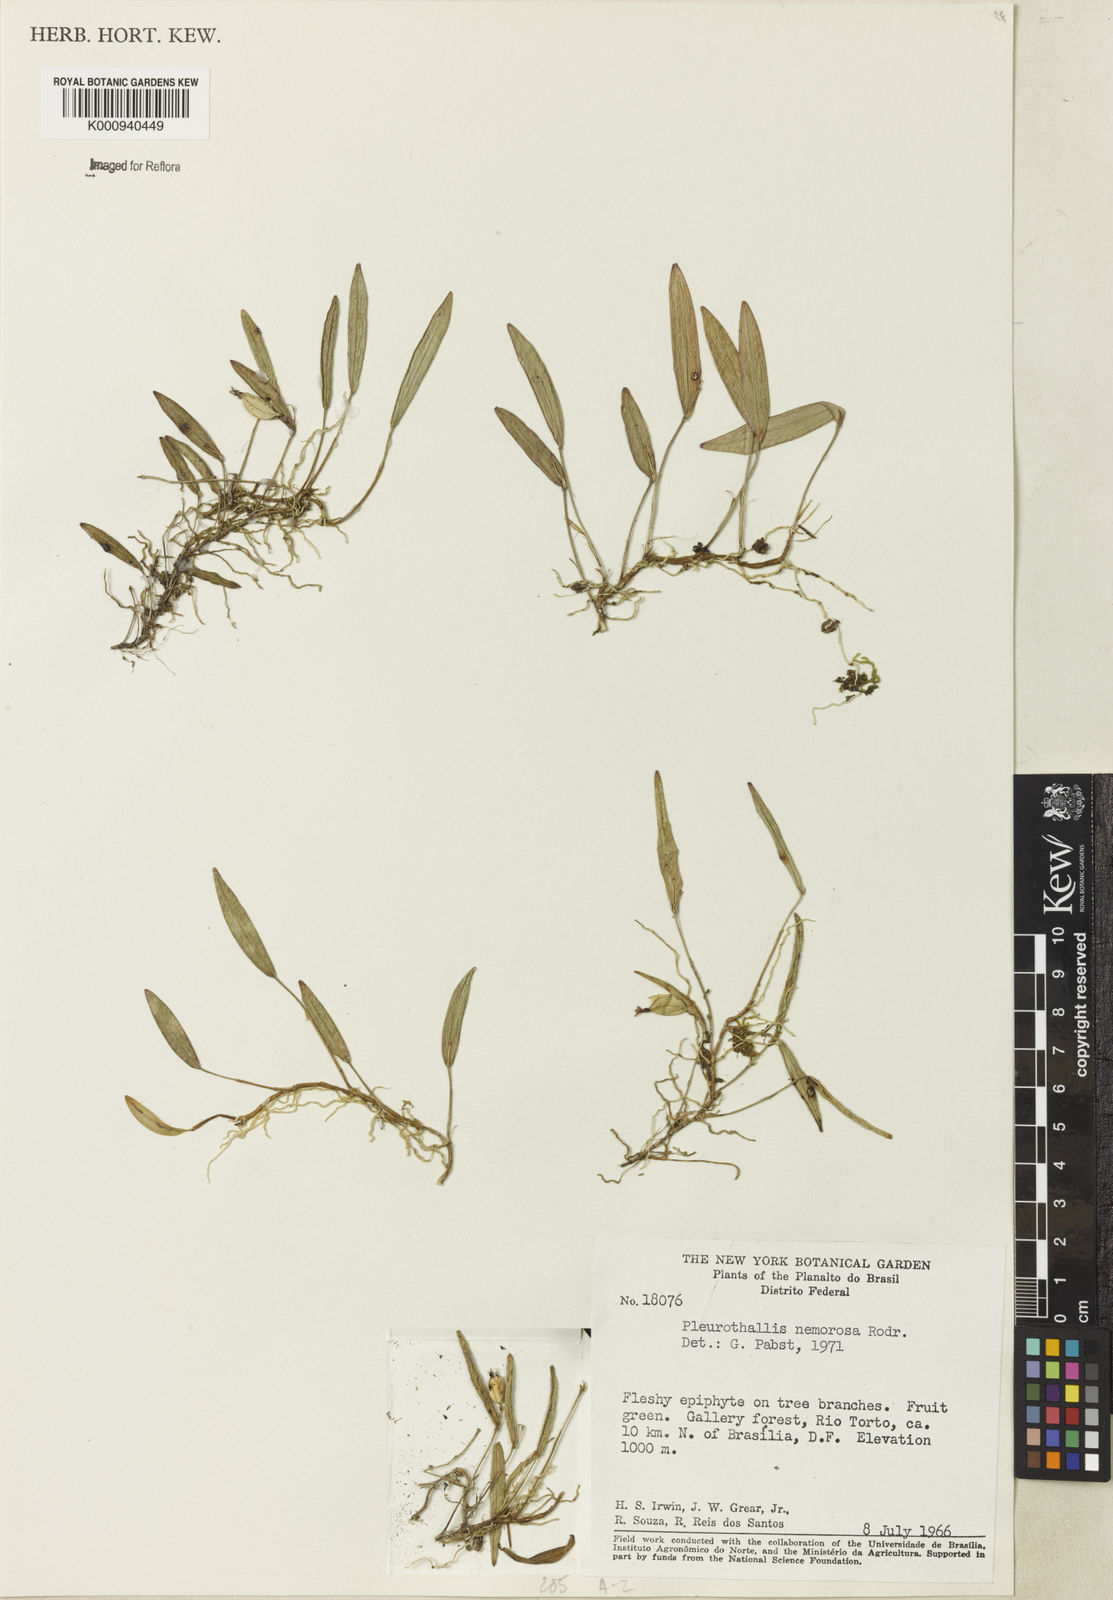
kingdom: Plantae
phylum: Tracheophyta
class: Liliopsida
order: Asparagales
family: Orchidaceae
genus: Acianthera
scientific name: Acianthera nemorosa
